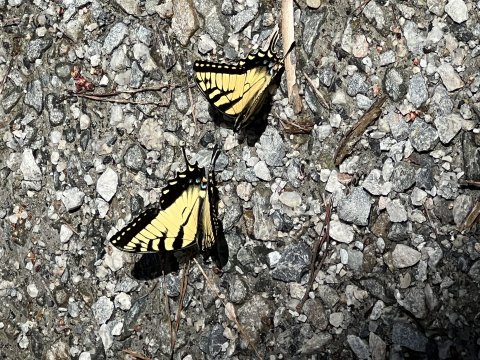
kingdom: Animalia
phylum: Arthropoda
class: Insecta
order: Lepidoptera
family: Papilionidae
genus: Pterourus
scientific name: Pterourus glaucus
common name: Eastern Tiger Swallowtail
